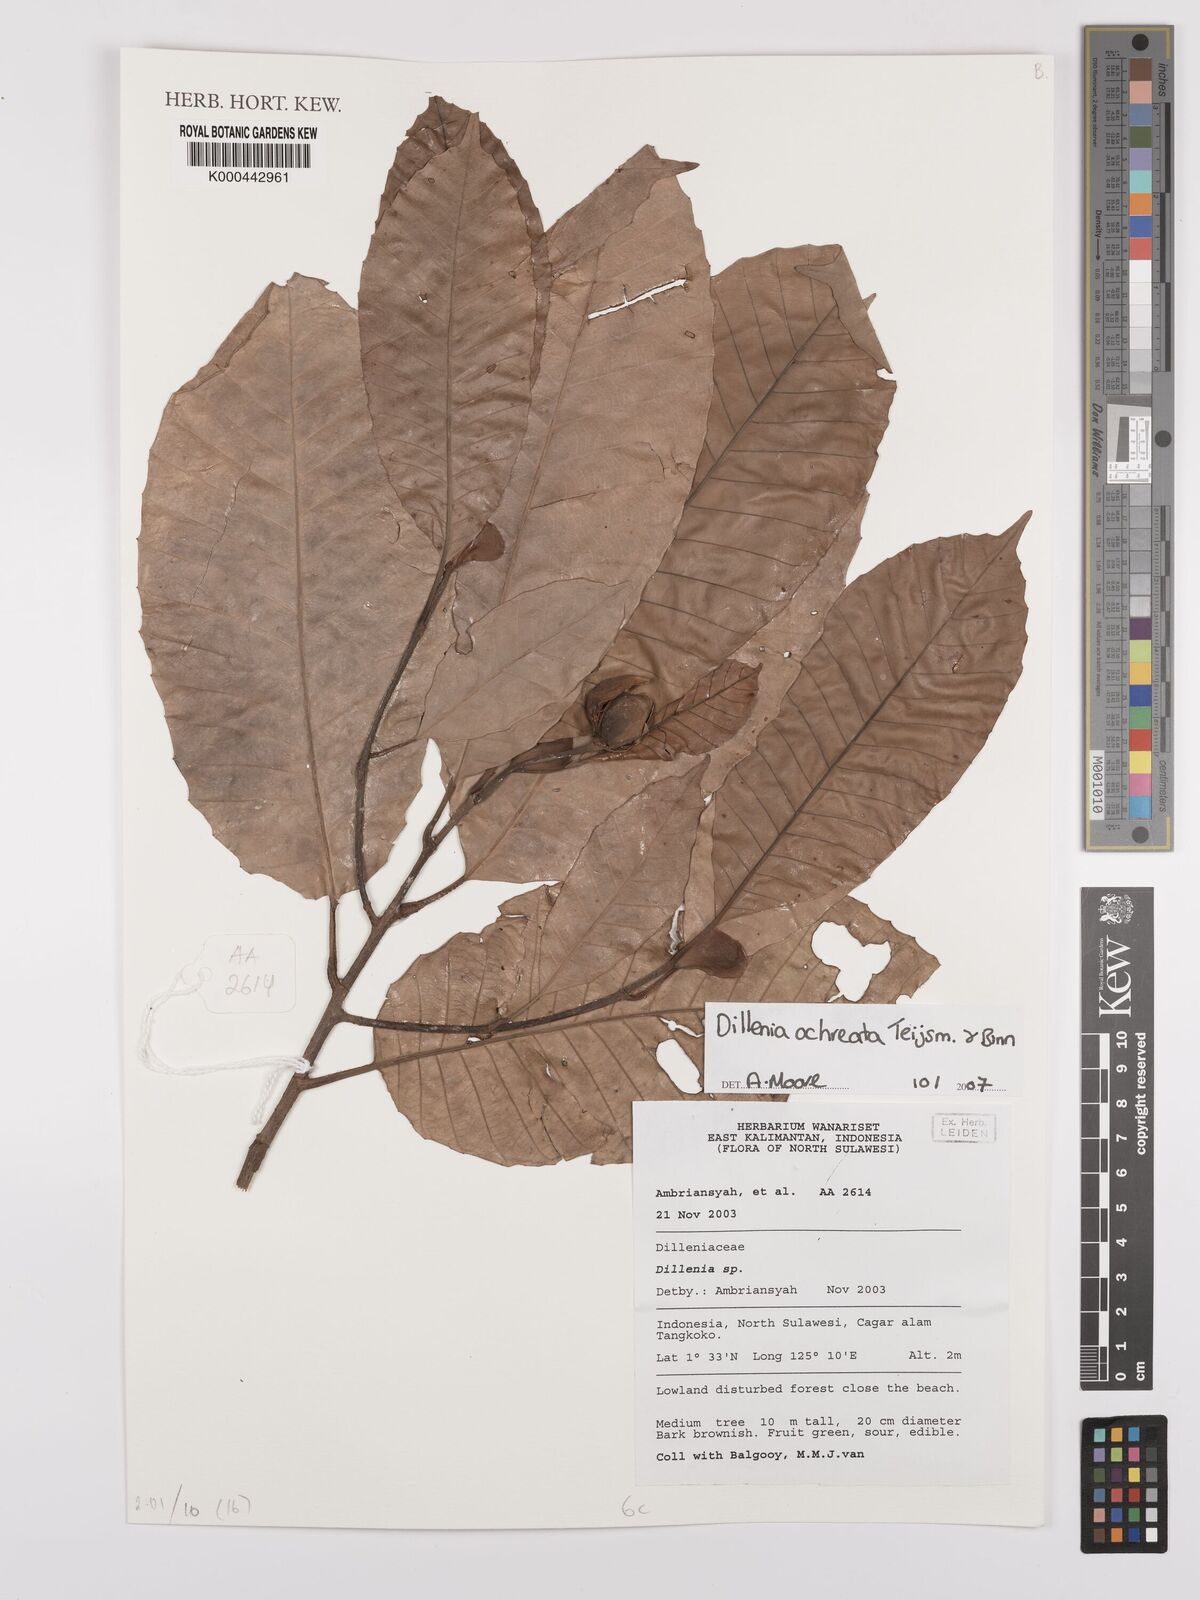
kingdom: Plantae
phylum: Tracheophyta
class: Magnoliopsida
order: Dilleniales
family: Dilleniaceae
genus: Dillenia
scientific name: Dillenia
